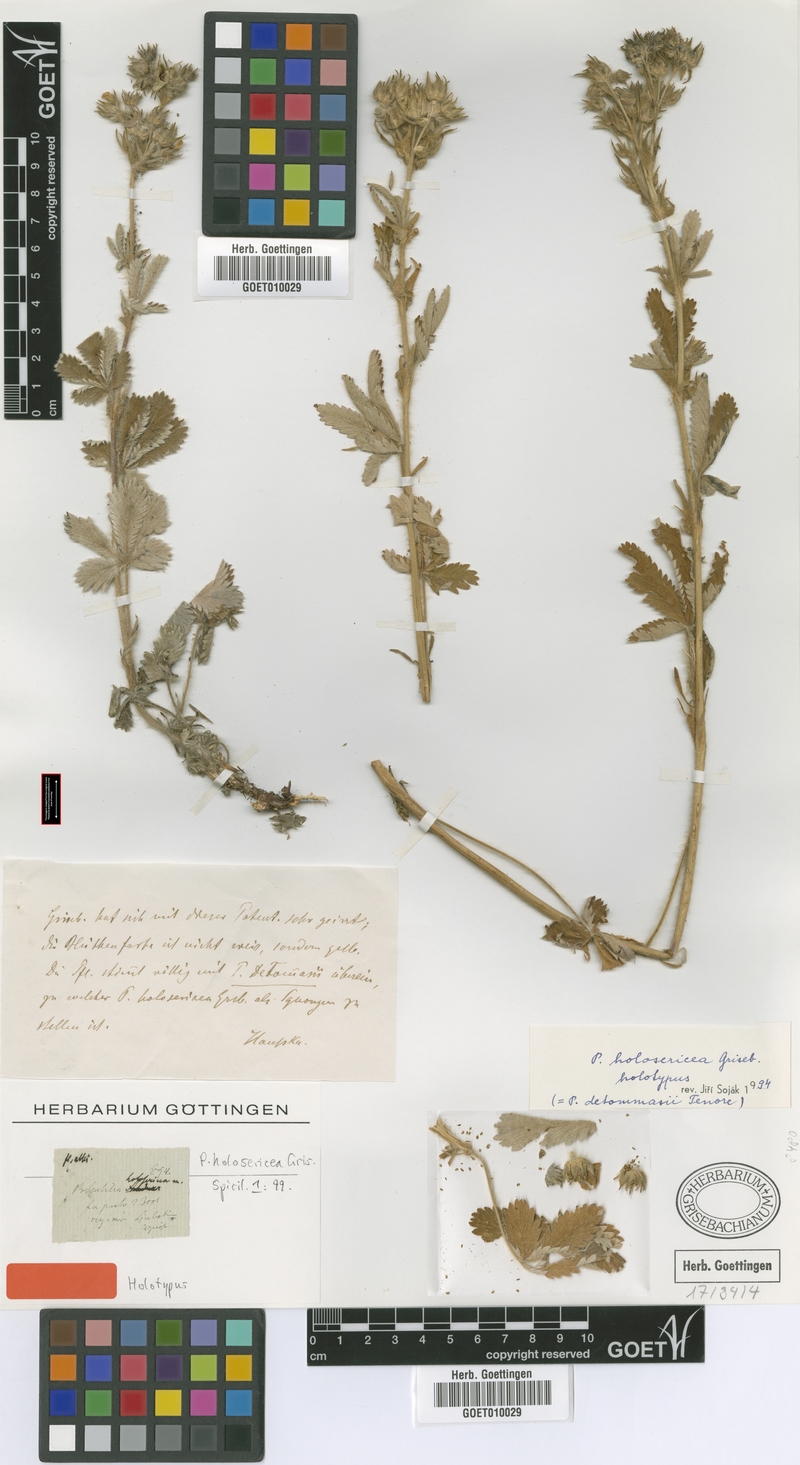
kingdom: Plantae
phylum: Tracheophyta
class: Magnoliopsida
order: Rosales
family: Rosaceae
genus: Potentilla
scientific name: Potentilla detommasii
